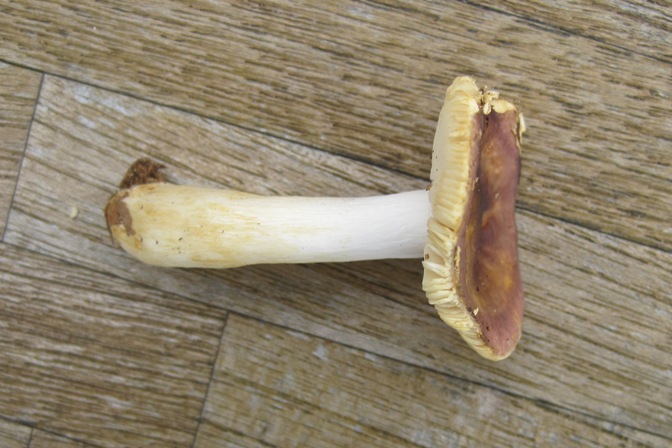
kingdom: Fungi
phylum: Basidiomycota
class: Agaricomycetes
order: Russulales
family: Russulaceae
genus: Russula
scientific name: Russula puellaris
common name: gulstokket skørhat
